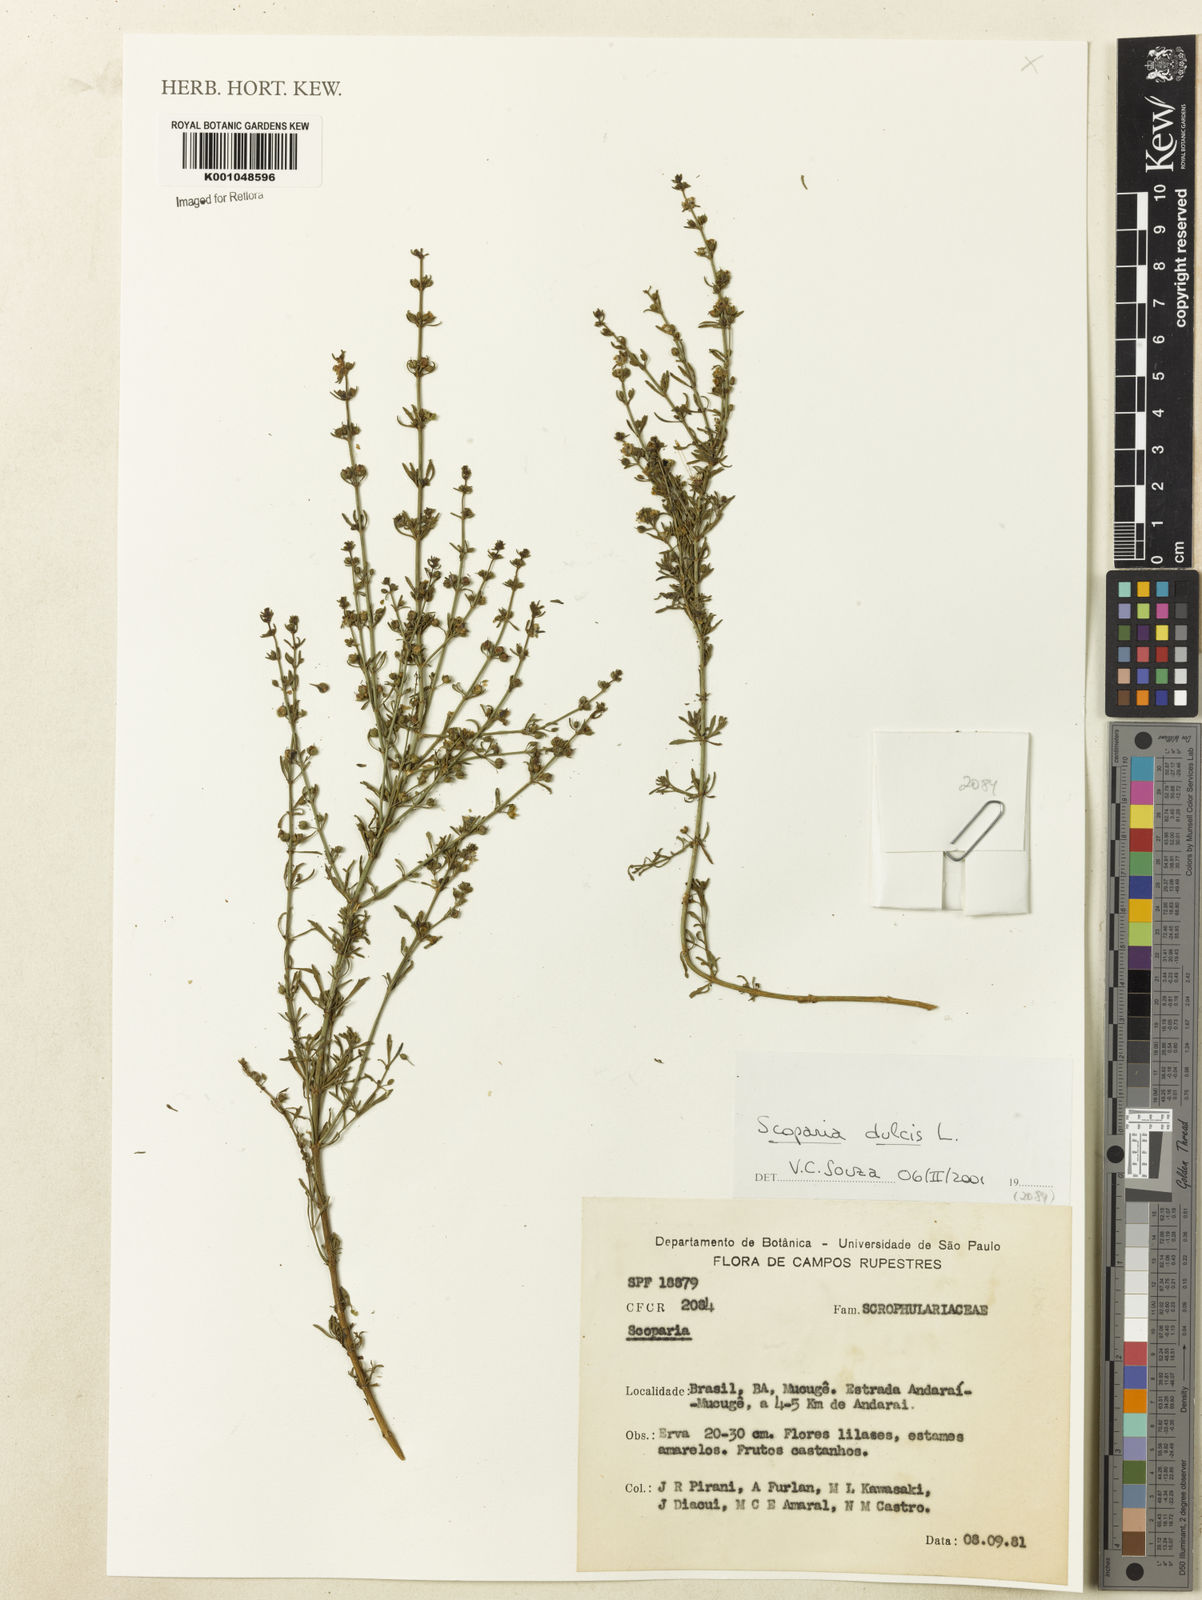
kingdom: Plantae
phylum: Tracheophyta
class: Magnoliopsida
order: Lamiales
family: Plantaginaceae
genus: Scoparia
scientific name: Scoparia dulcis
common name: Scoparia-weed
